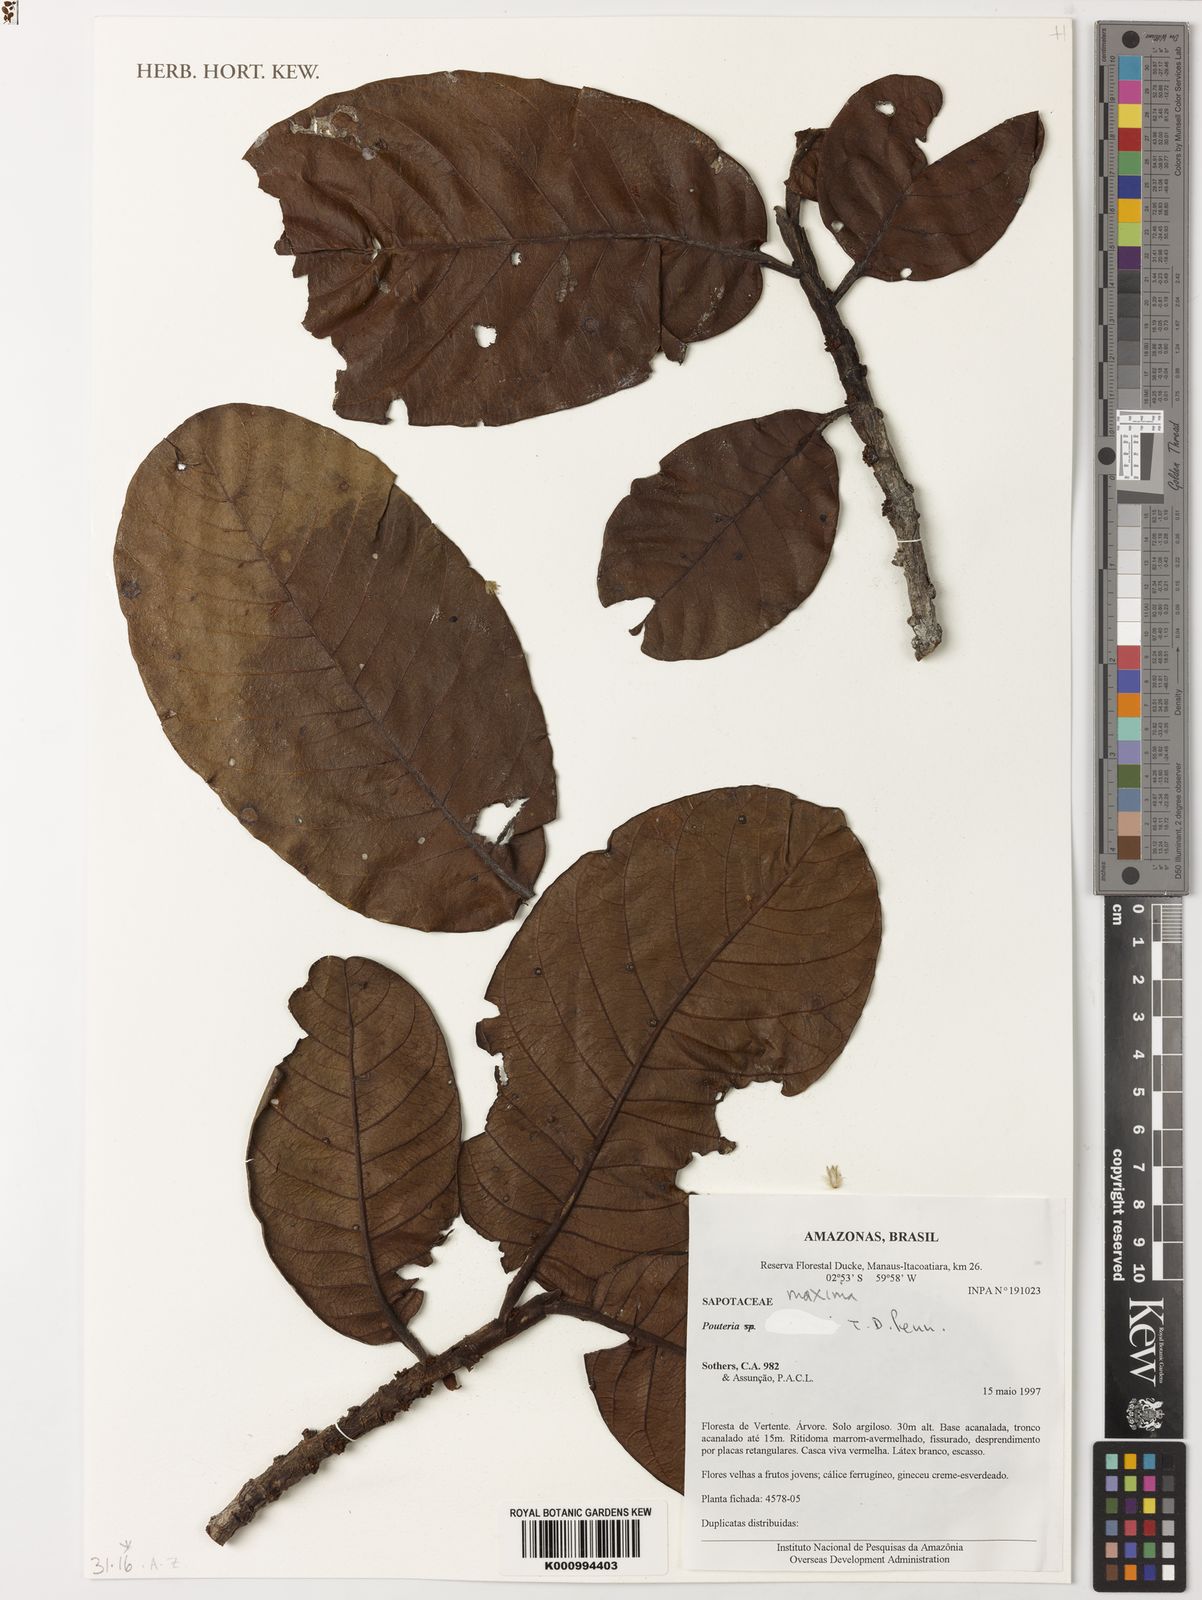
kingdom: Plantae
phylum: Tracheophyta
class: Magnoliopsida
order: Ericales
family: Sapotaceae
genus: Pouteria
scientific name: Pouteria maxima
